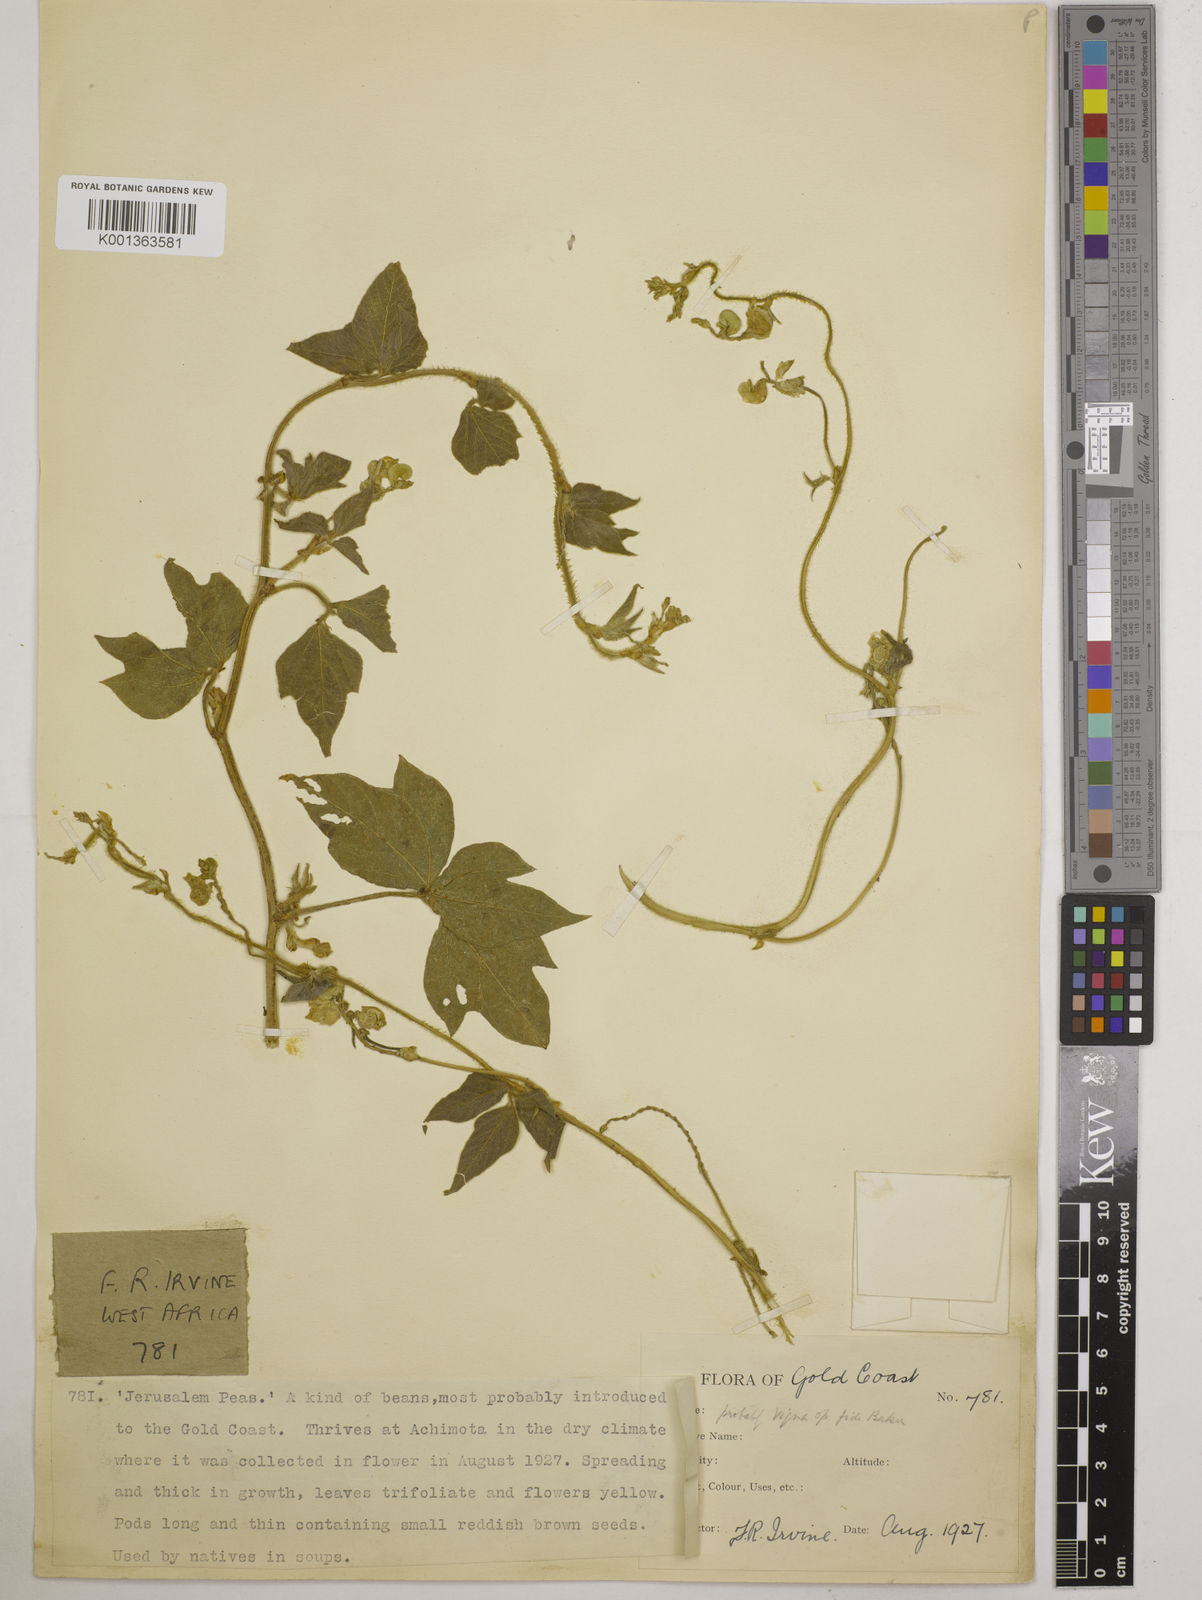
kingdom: Plantae
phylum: Tracheophyta
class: Magnoliopsida
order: Fabales
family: Fabaceae
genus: Vigna
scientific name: Vigna umbellata
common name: Oriental-bean
